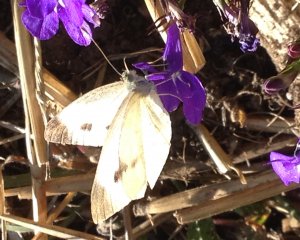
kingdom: Animalia
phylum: Arthropoda
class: Insecta
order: Lepidoptera
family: Pieridae
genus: Pieris
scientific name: Pieris rapae
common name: Cabbage White
